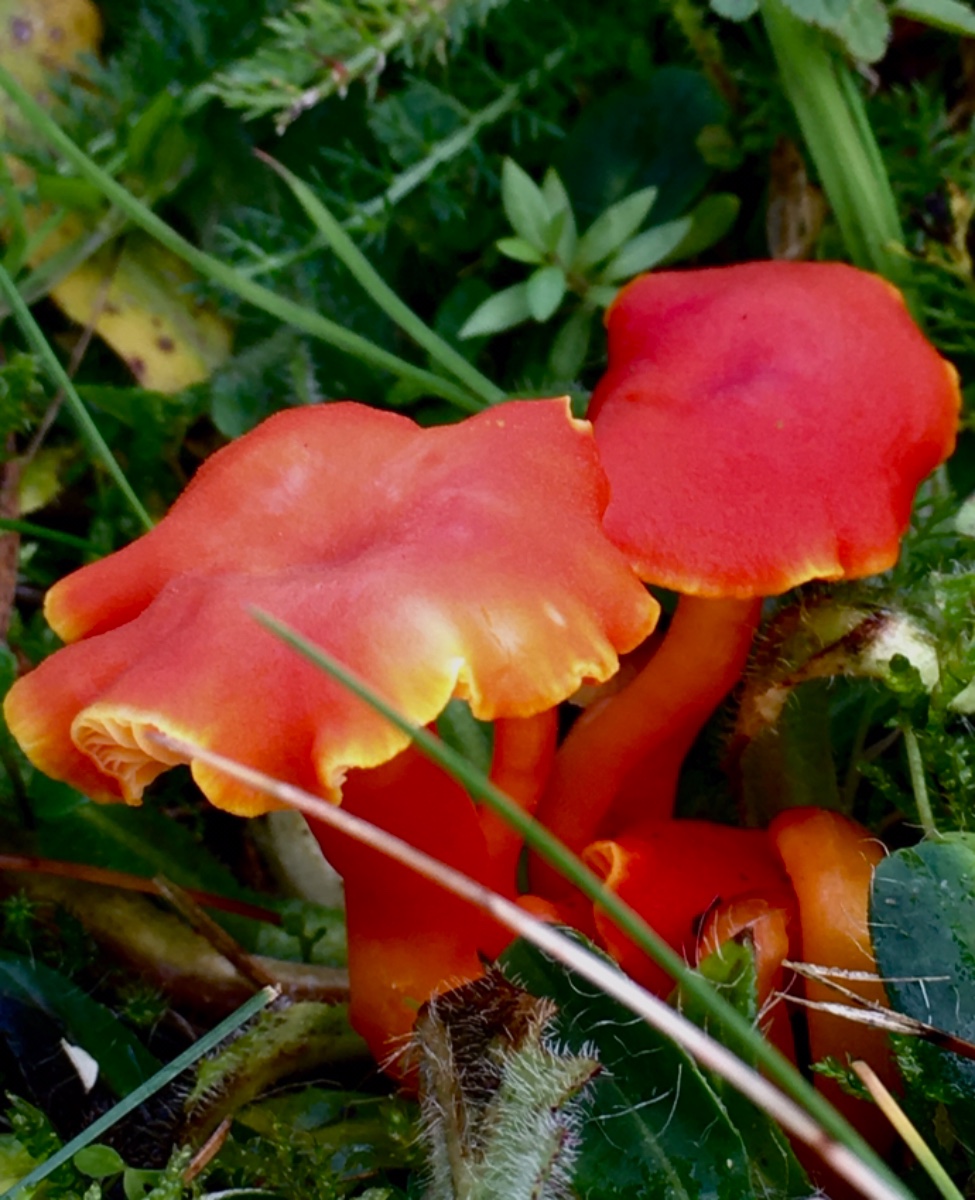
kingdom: Fungi
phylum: Basidiomycota
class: Agaricomycetes
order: Agaricales
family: Hygrophoraceae
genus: Hygrocybe
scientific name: Hygrocybe miniata
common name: mønje-vokshat
